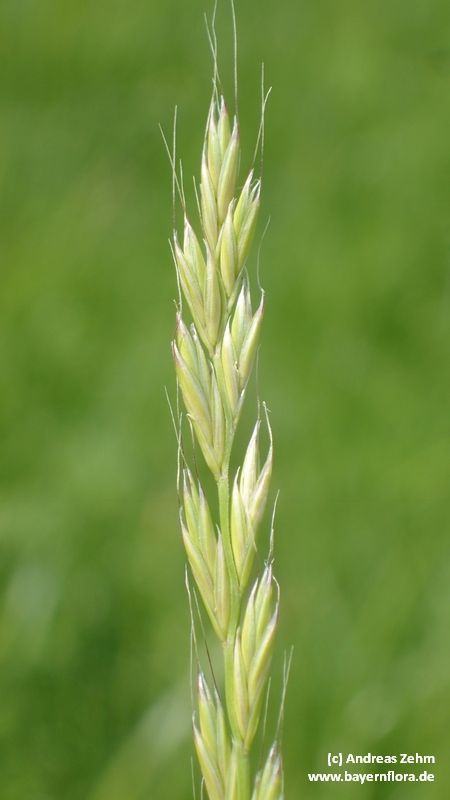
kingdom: Plantae
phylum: Tracheophyta
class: Liliopsida
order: Poales
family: Poaceae
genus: Lolium
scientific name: Lolium multiflorum
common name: Annual ryegrass
